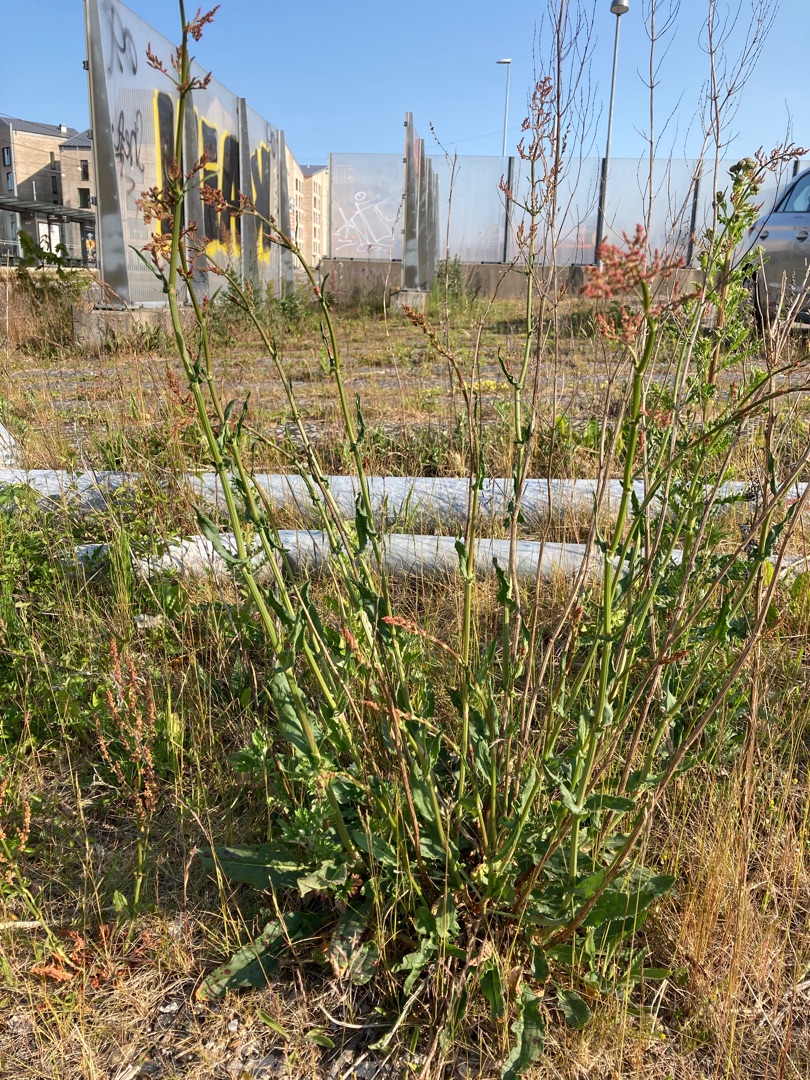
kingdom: Plantae
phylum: Tracheophyta
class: Magnoliopsida
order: Caryophyllales
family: Polygonaceae
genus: Rumex
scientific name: Rumex thyrsiflorus
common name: Dusk-syre
